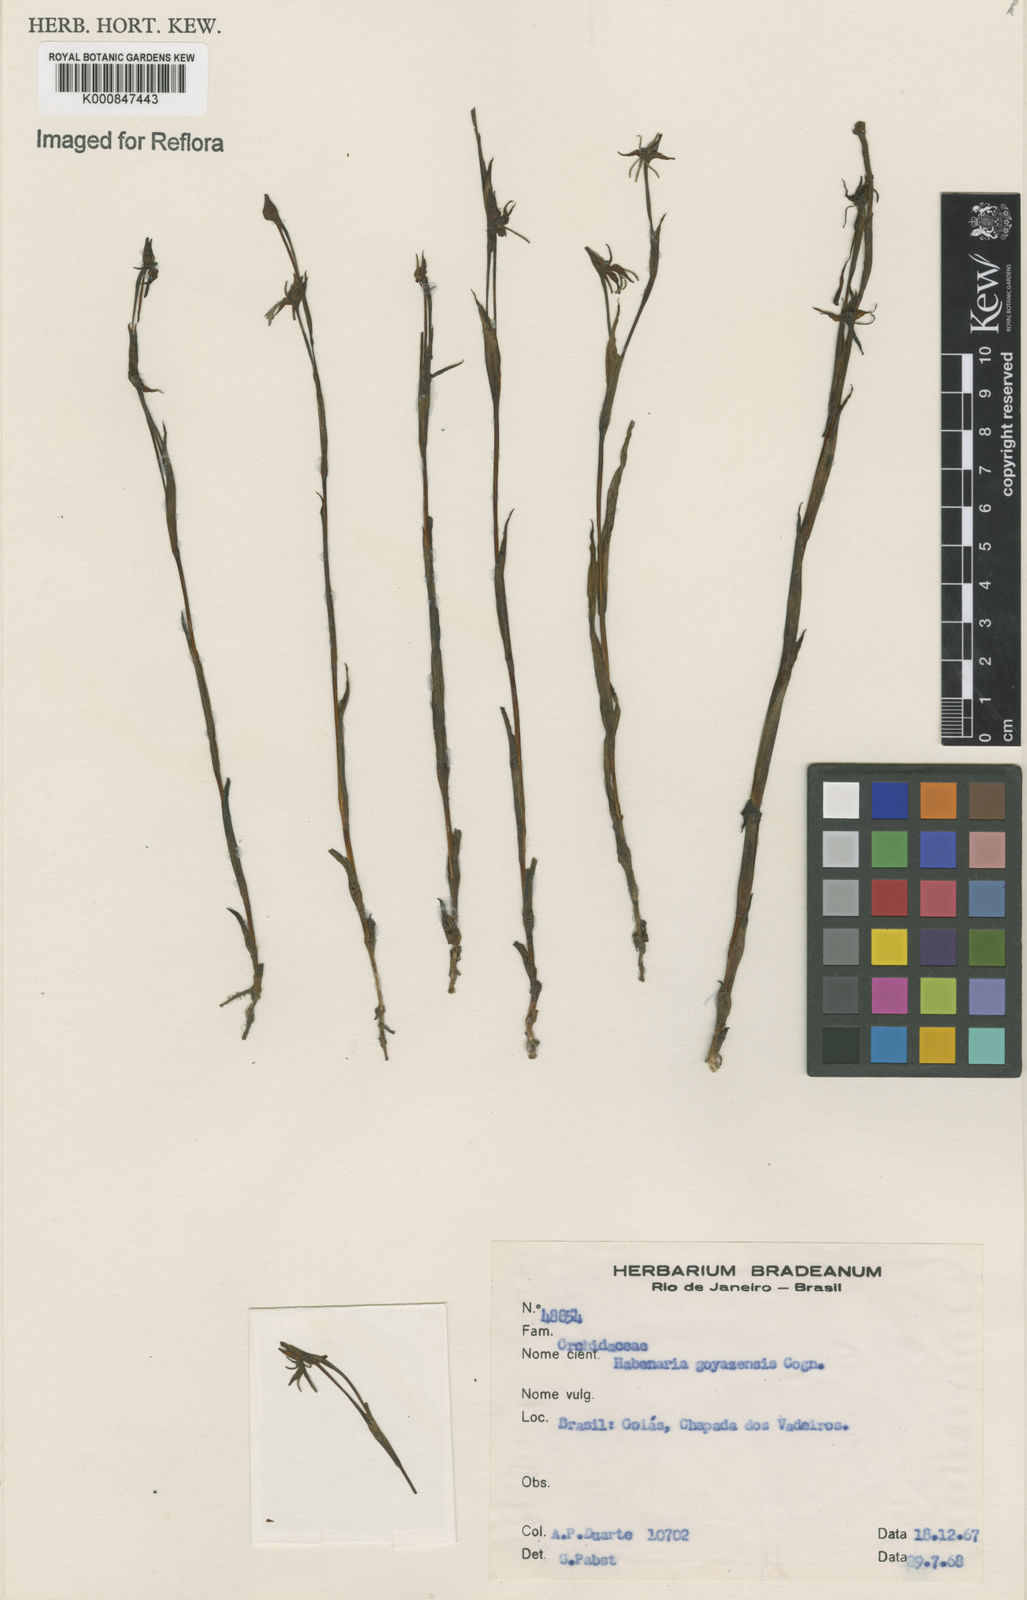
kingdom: Plantae
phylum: Tracheophyta
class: Liliopsida
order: Asparagales
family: Orchidaceae
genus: Habenaria
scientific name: Habenaria goyazensis
